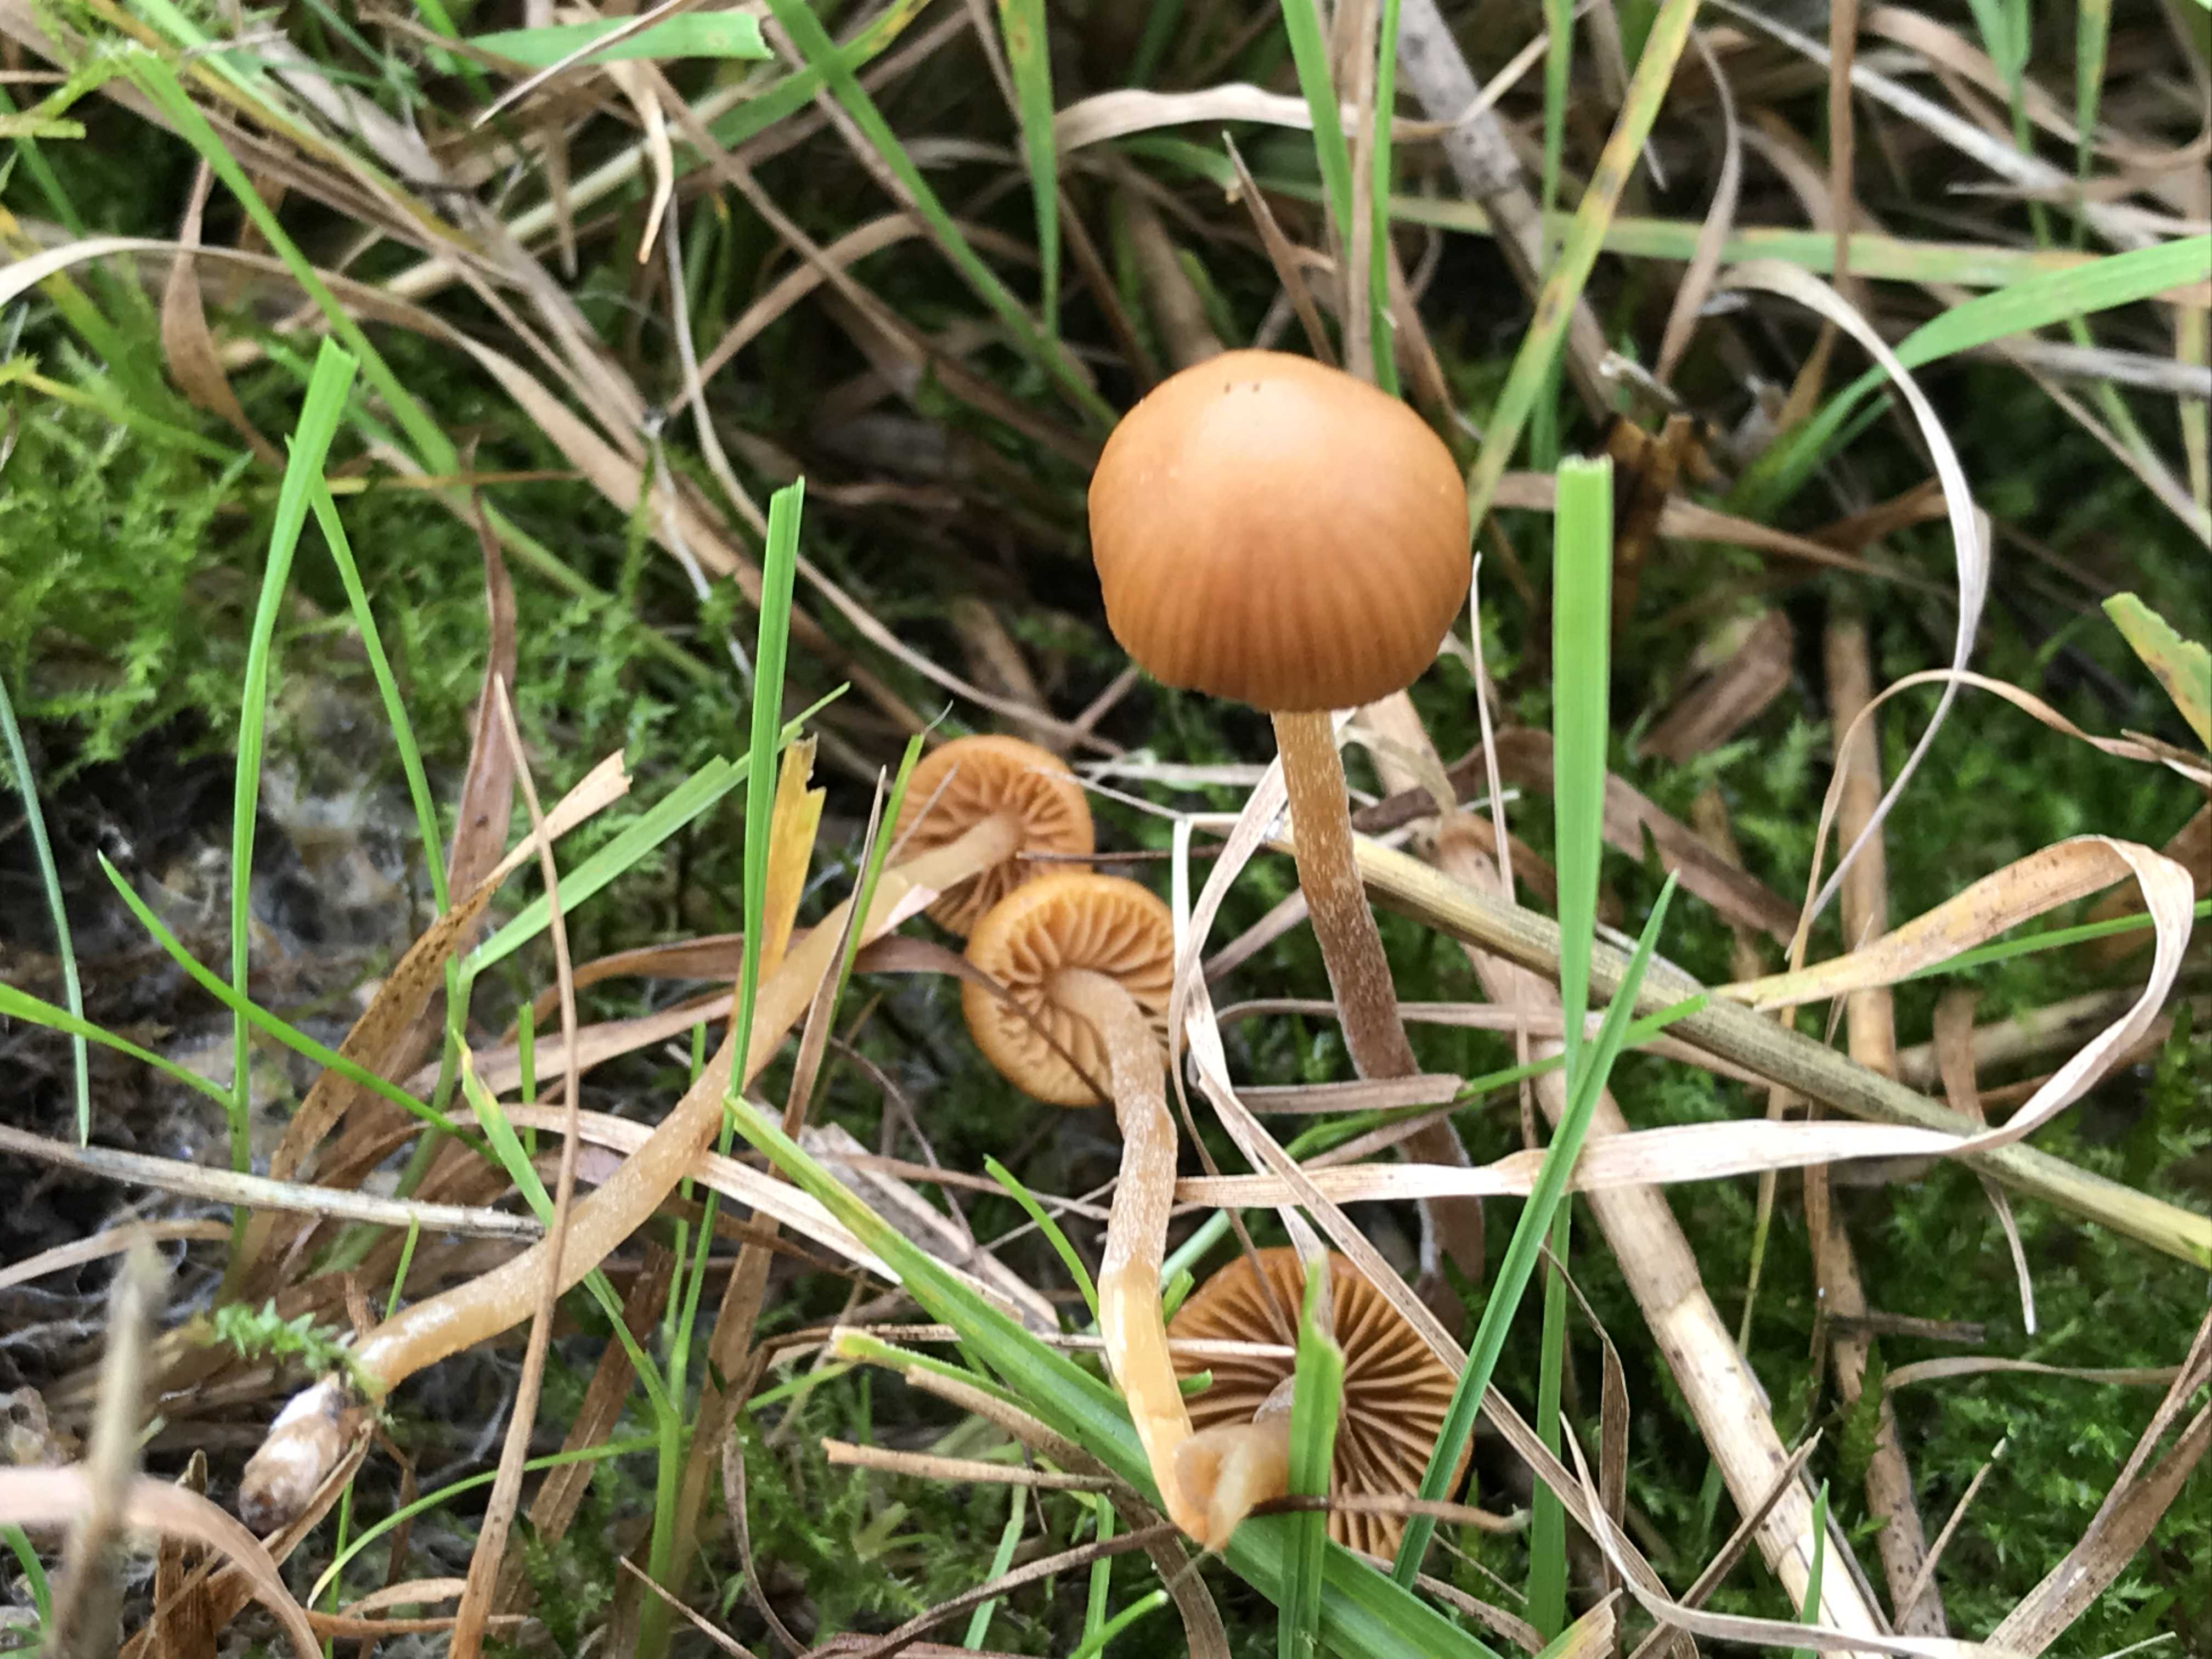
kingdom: Fungi
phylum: Basidiomycota
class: Agaricomycetes
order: Agaricales
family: Hymenogastraceae
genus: Galerina
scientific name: Galerina
